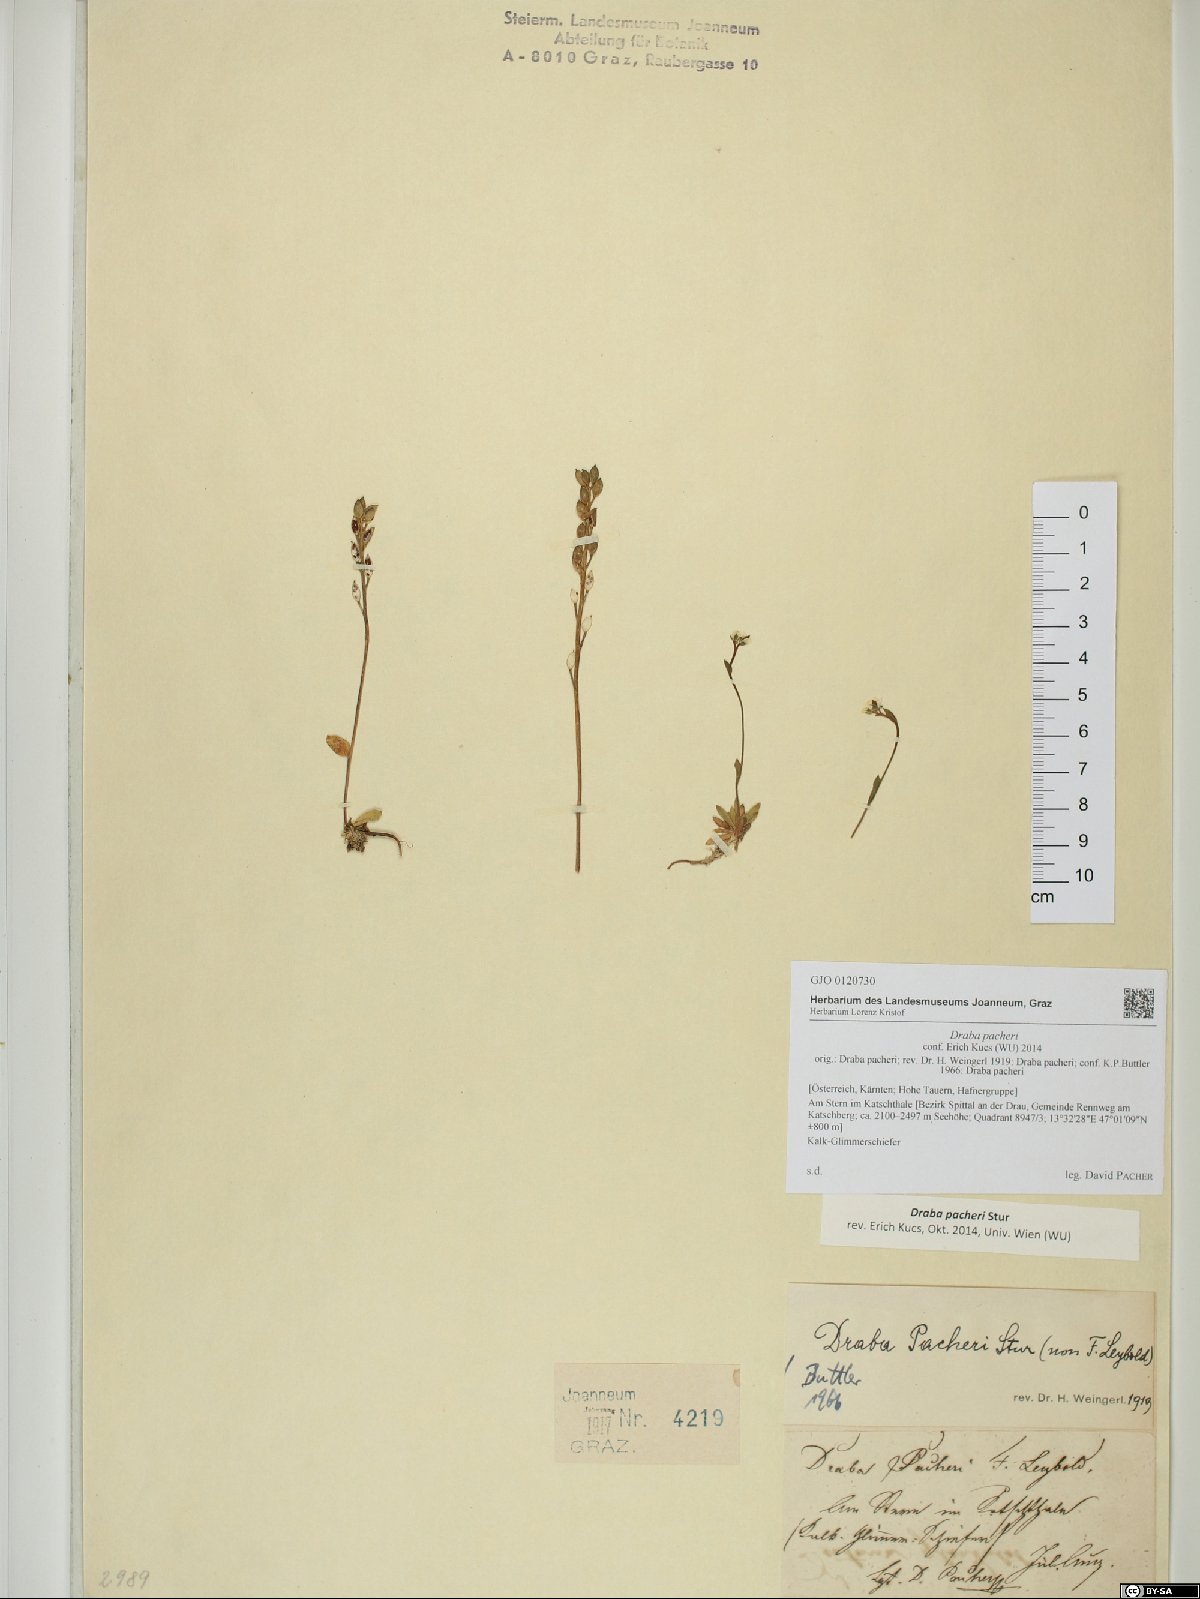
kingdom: Plantae
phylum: Tracheophyta
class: Magnoliopsida
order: Brassicales
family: Brassicaceae
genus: Draba
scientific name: Draba pacheri
